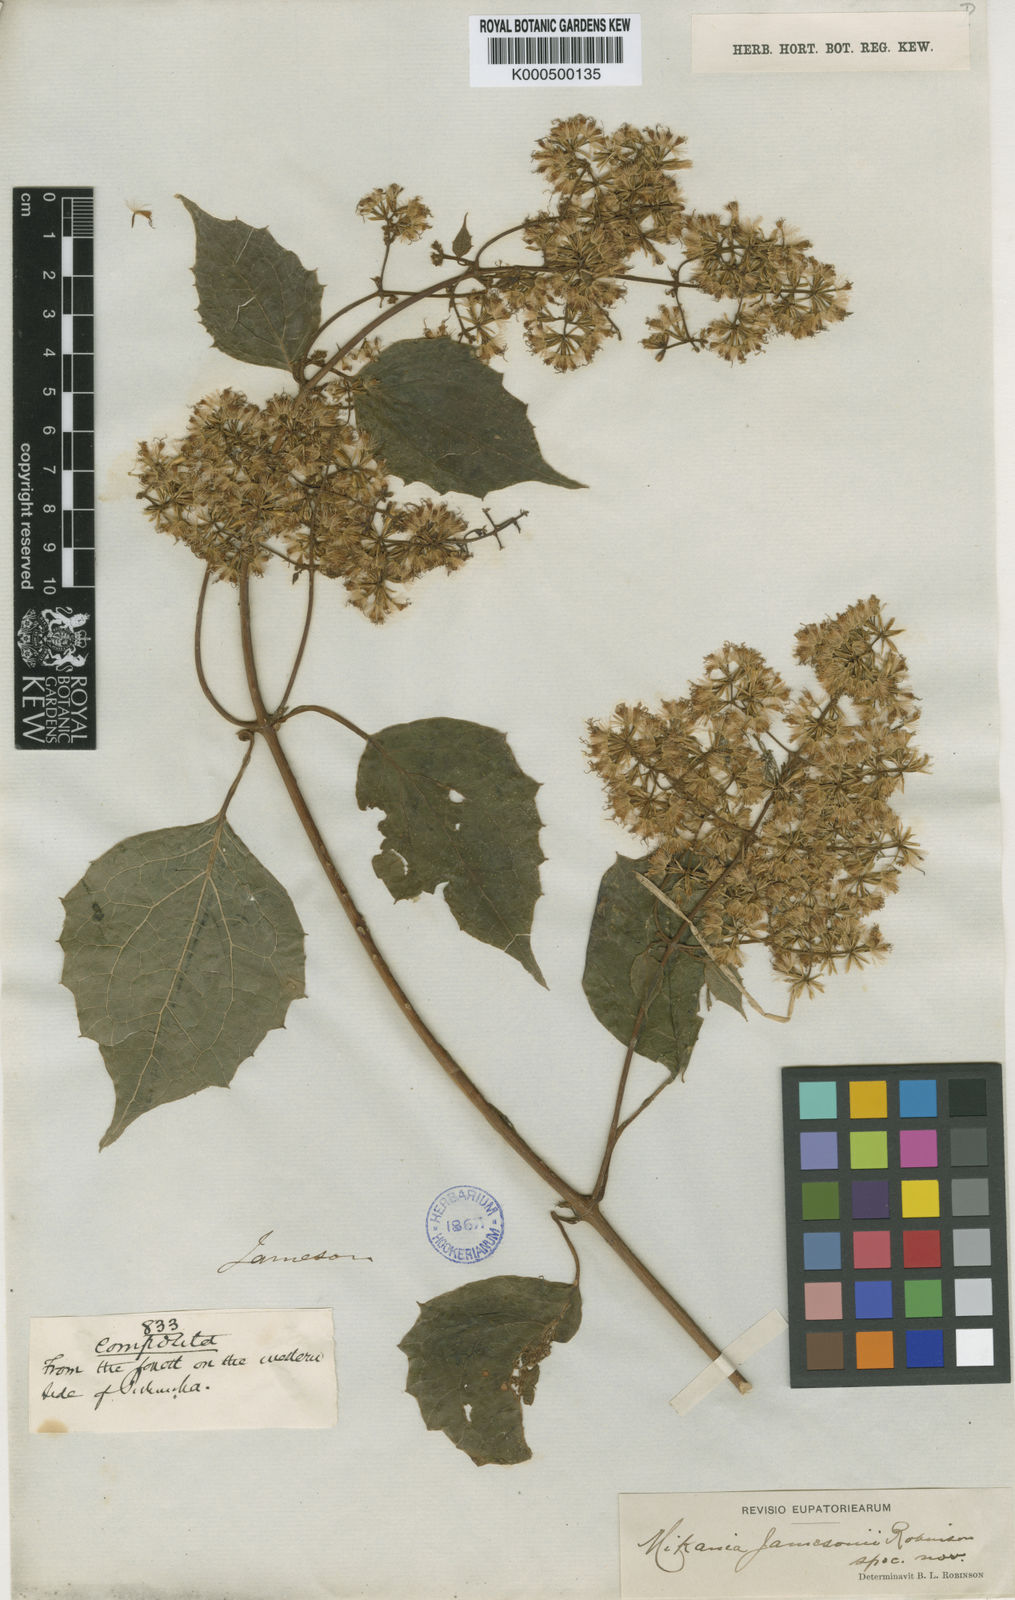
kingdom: Plantae
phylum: Tracheophyta
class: Magnoliopsida
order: Asterales
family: Asteraceae
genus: Mikania
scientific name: Mikania granulata
